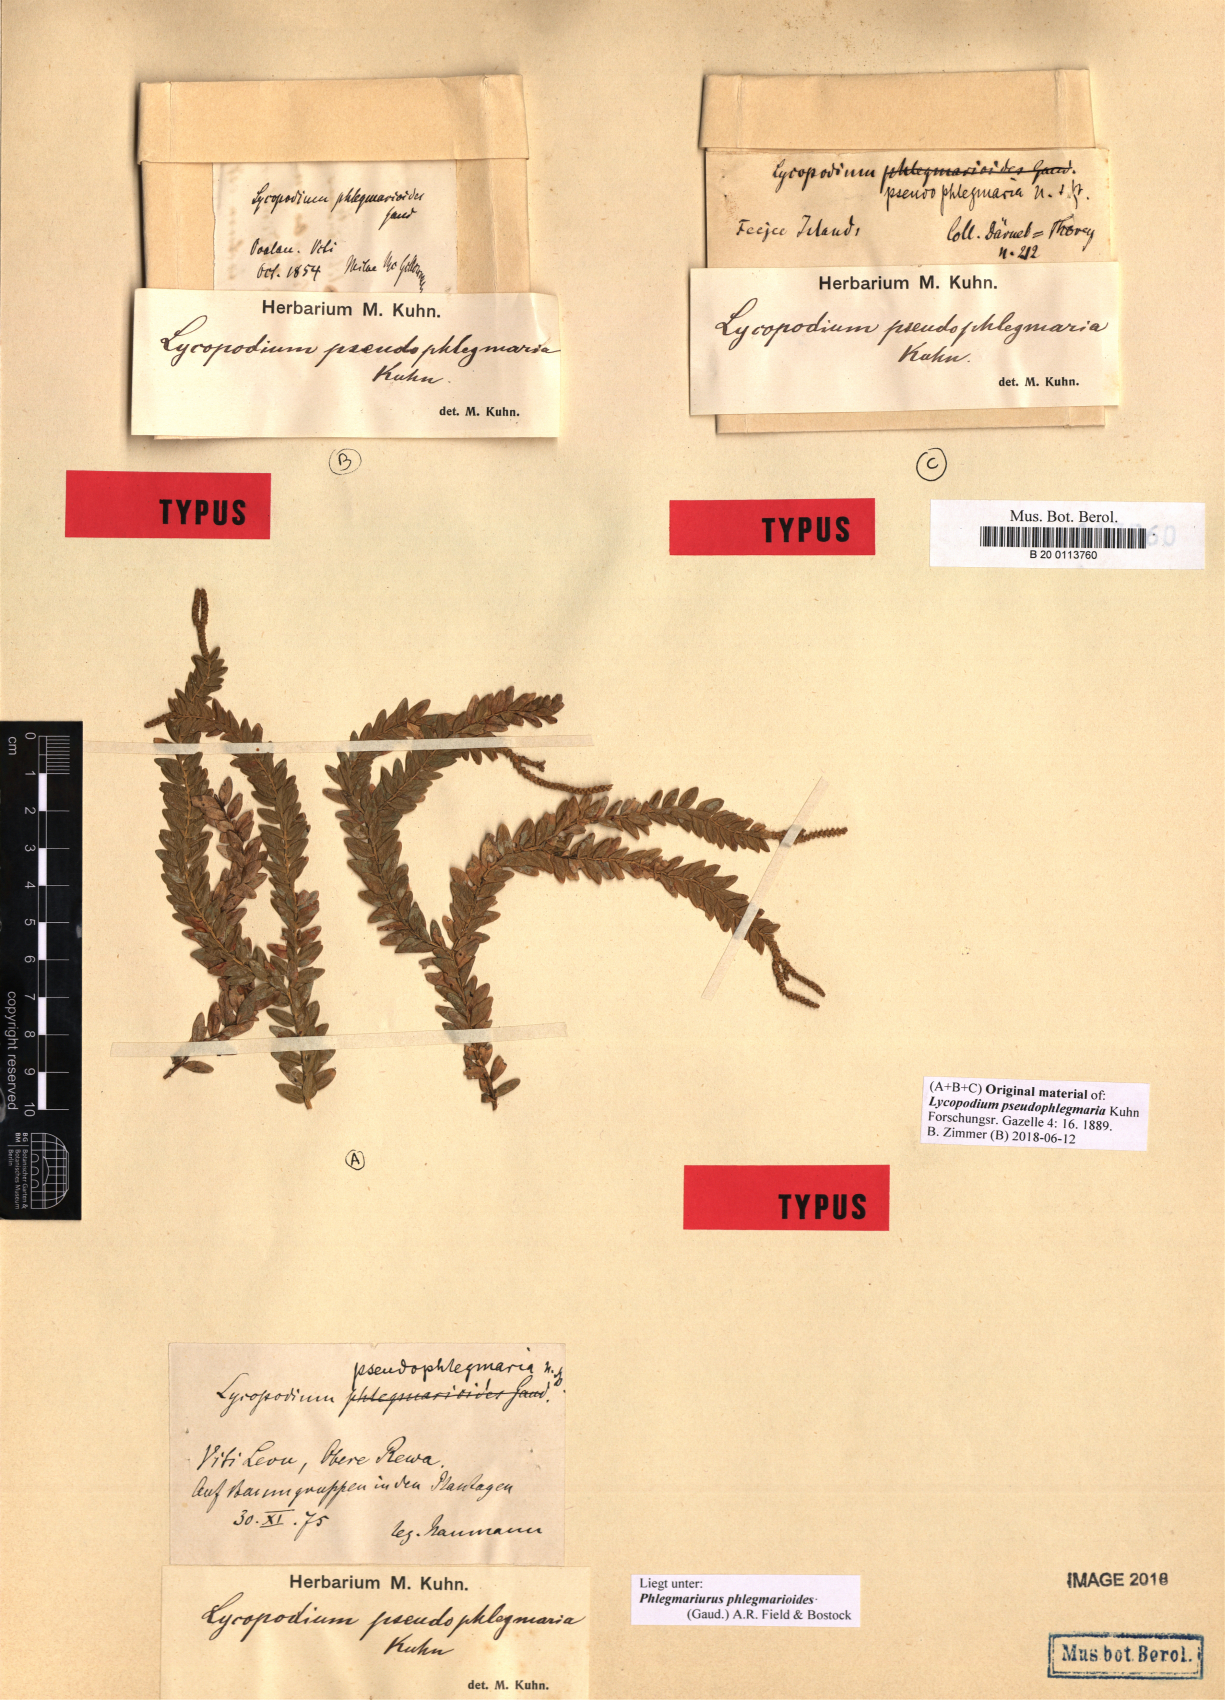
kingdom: Plantae
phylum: Tracheophyta
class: Lycopodiopsida
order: Lycopodiales
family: Lycopodiaceae
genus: Phlegmariurus
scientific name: Phlegmariurus phlegmarioides
